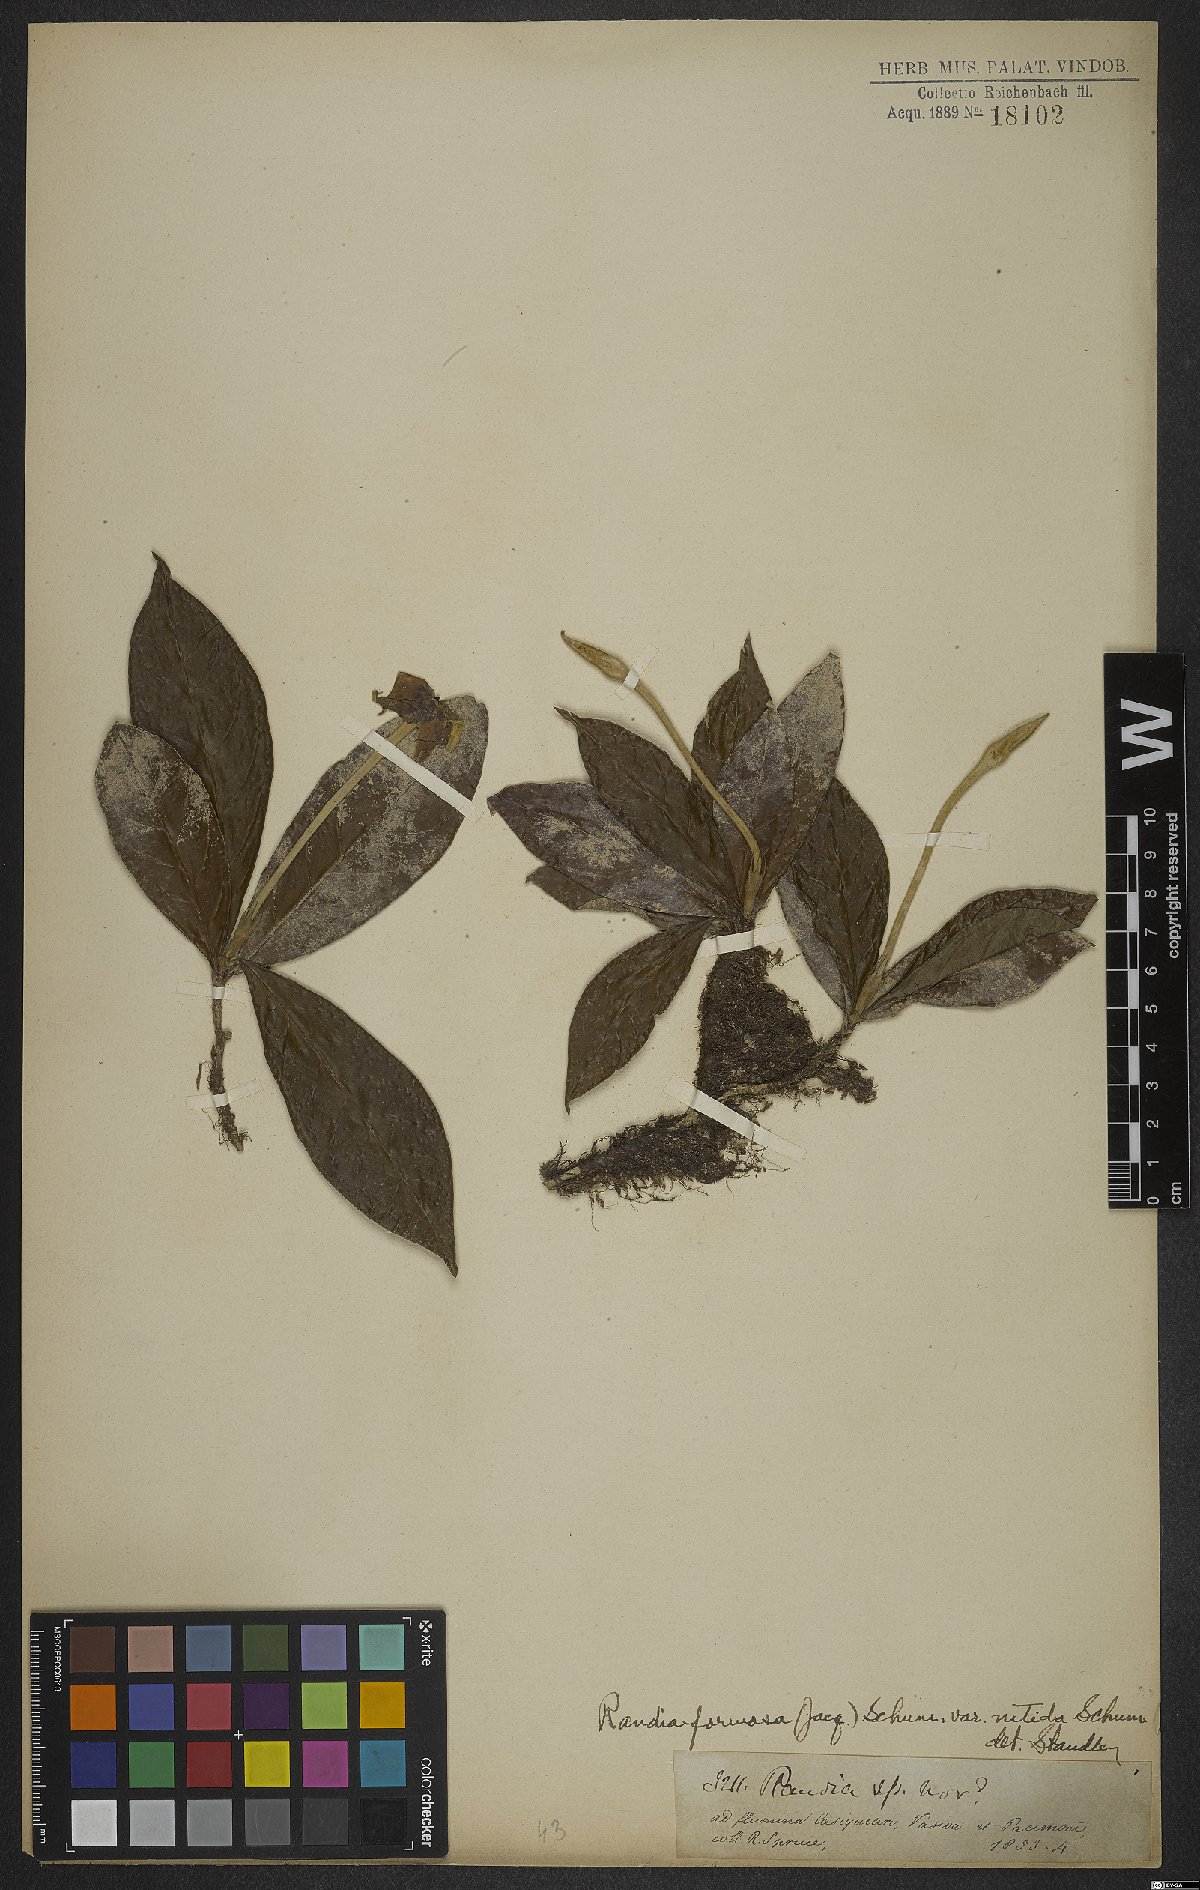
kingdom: Plantae
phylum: Tracheophyta
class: Magnoliopsida
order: Gentianales
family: Rubiaceae
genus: Rosenbergiodendron
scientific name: Rosenbergiodendron formosum
